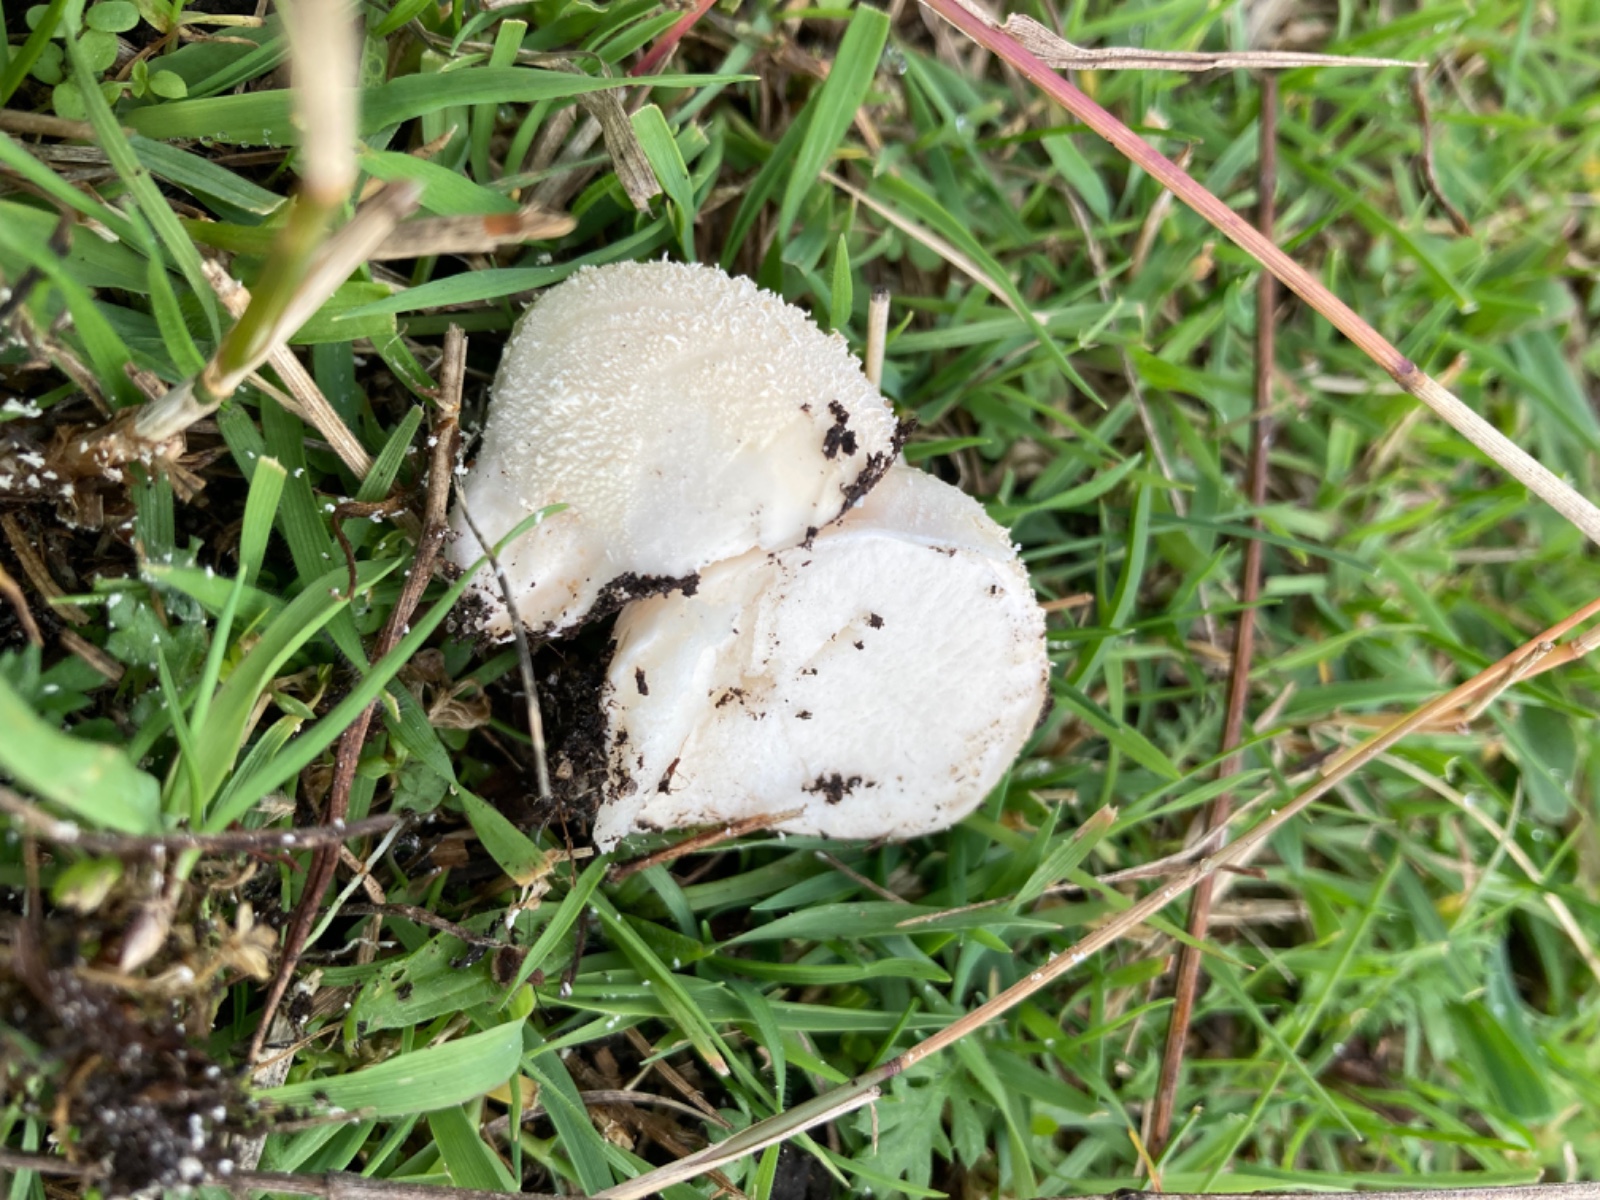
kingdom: Fungi
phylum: Basidiomycota
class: Agaricomycetes
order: Agaricales
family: Lycoperdaceae
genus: Lycoperdon
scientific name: Lycoperdon pratense
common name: flad støvbold
